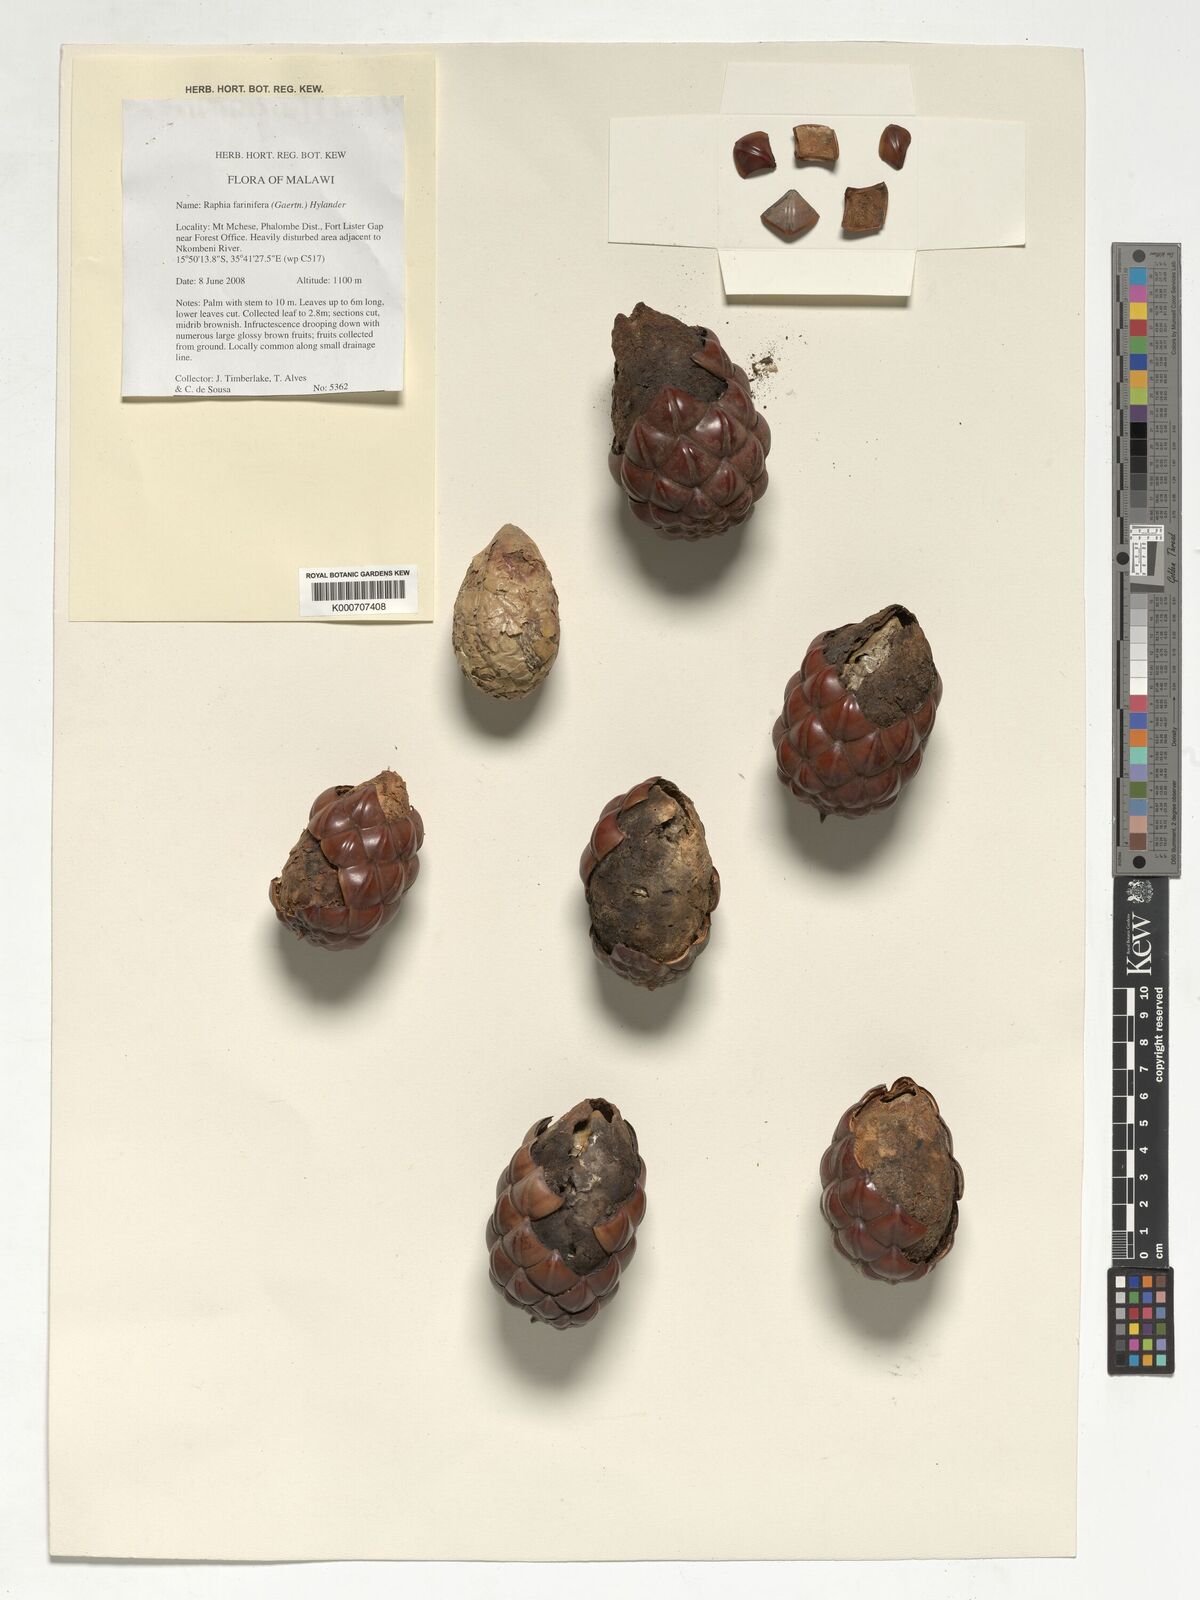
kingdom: Plantae
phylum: Tracheophyta
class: Liliopsida
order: Arecales
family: Arecaceae
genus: Raphia
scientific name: Raphia farinifera
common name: Raphia palm
